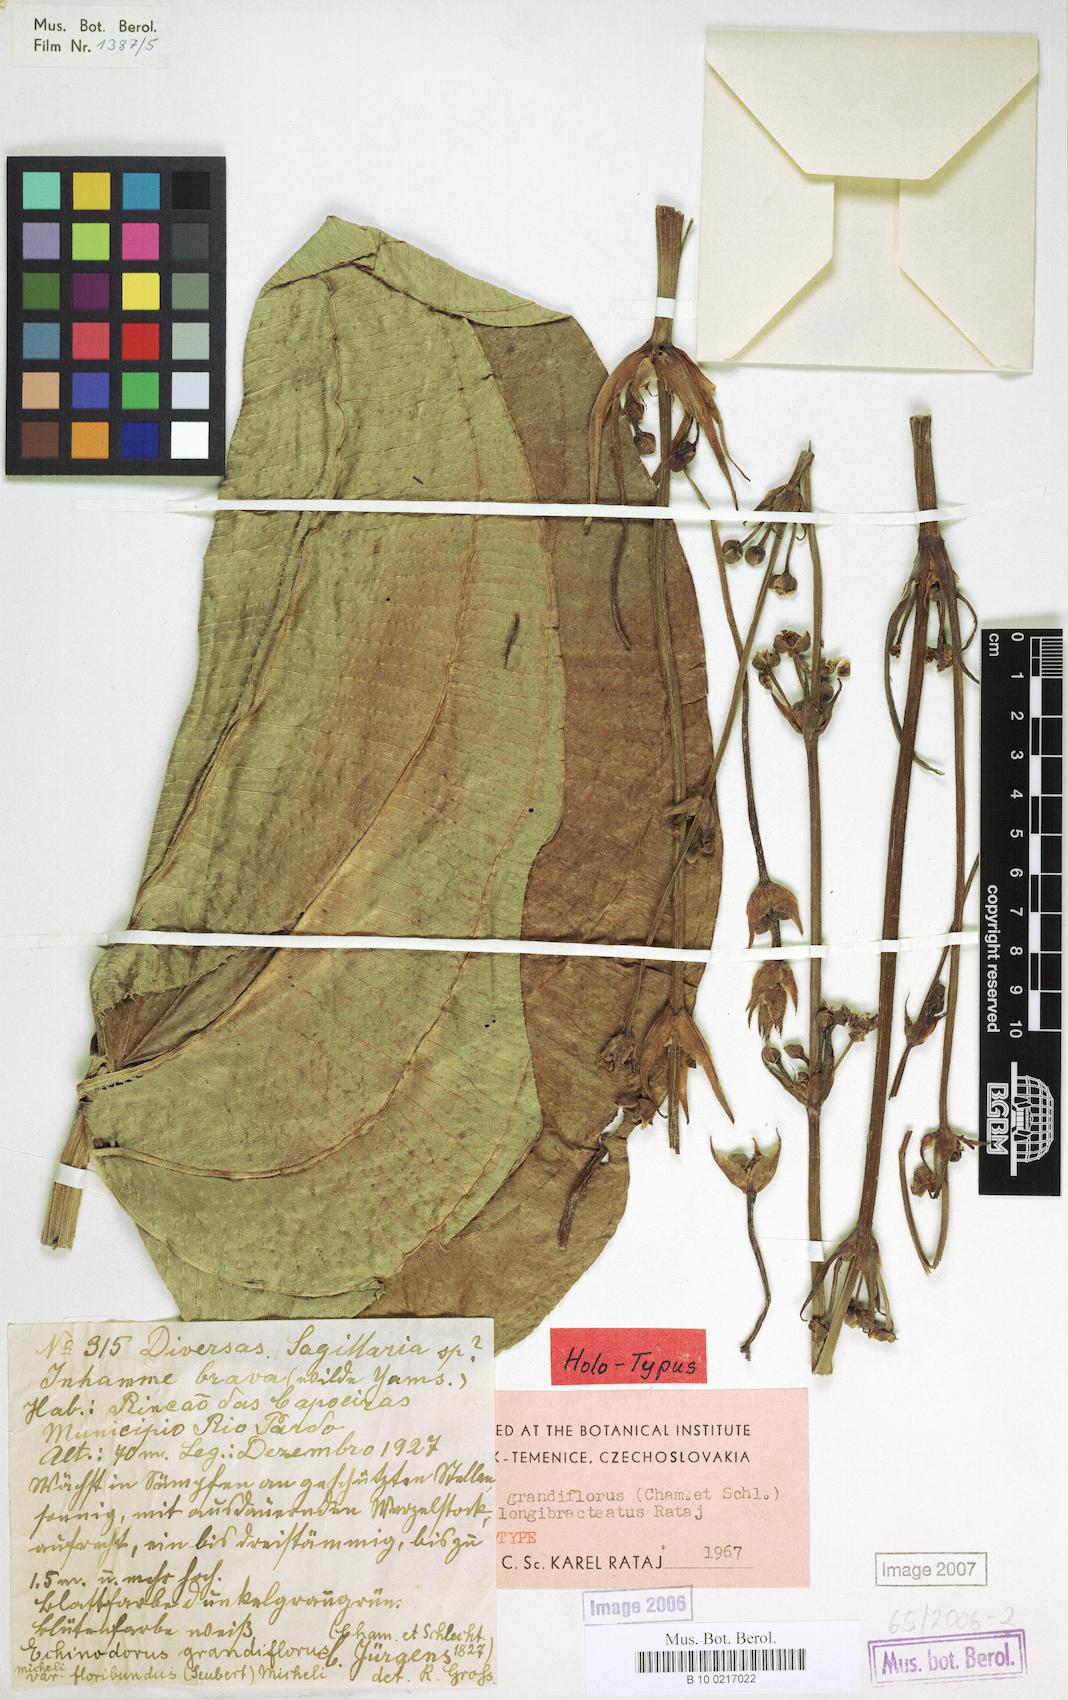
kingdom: Plantae
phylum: Tracheophyta
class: Liliopsida
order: Alismatales
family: Alismataceae
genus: Aquarius
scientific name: Aquarius floribundus
